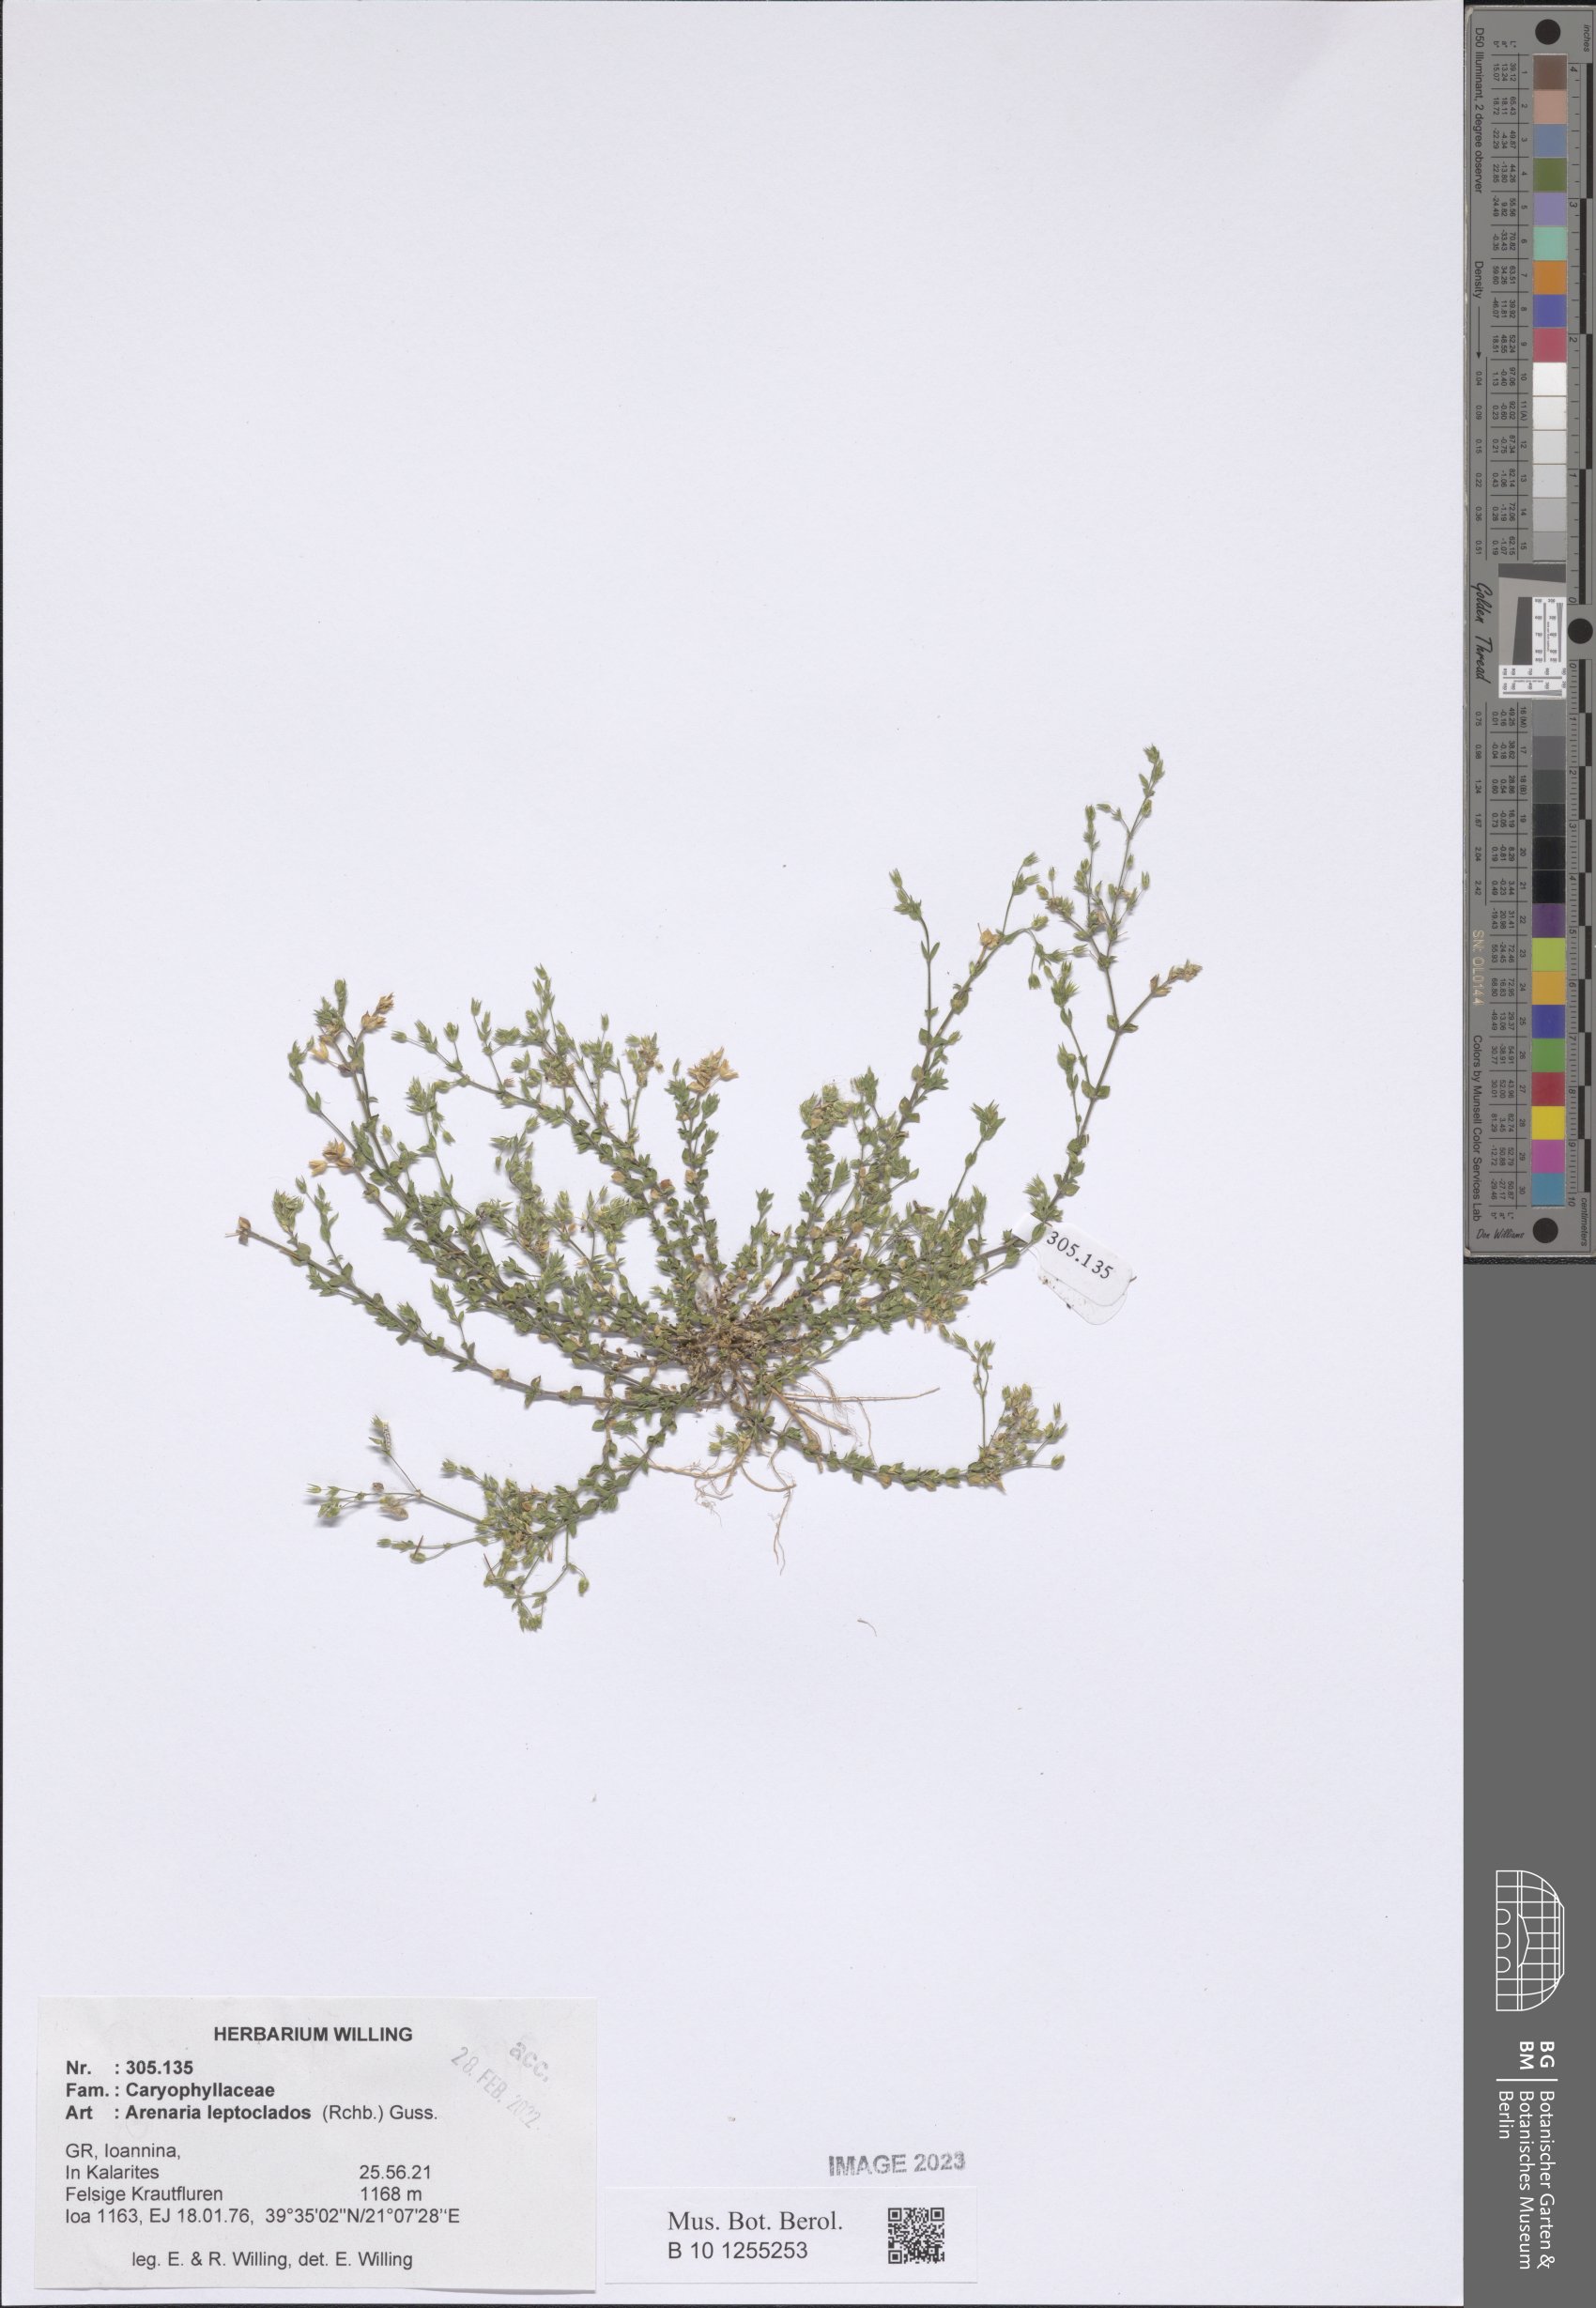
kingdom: Plantae
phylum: Tracheophyta
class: Magnoliopsida
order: Caryophyllales
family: Caryophyllaceae
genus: Arenaria
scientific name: Arenaria leptoclados
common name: Thyme-leaved sandwort
